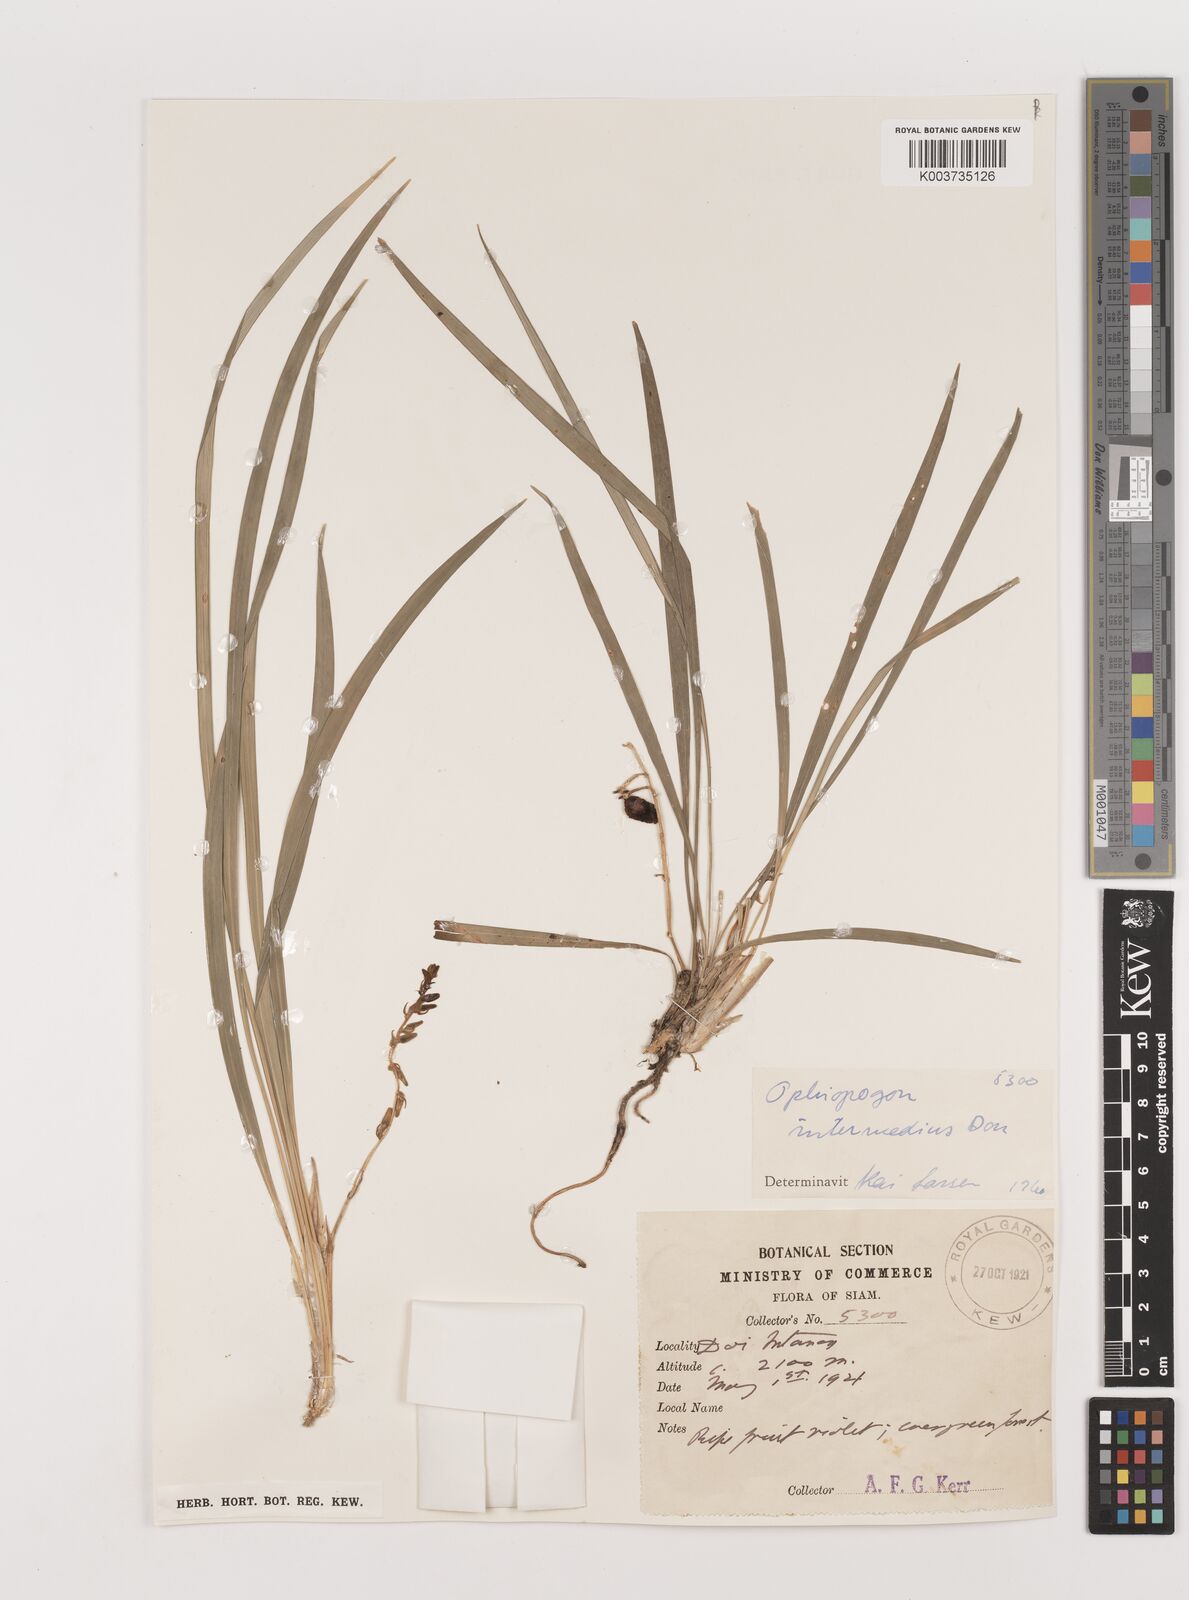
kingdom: Plantae
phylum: Tracheophyta
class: Liliopsida
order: Asparagales
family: Asparagaceae
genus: Ophiopogon
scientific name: Ophiopogon intermedius
